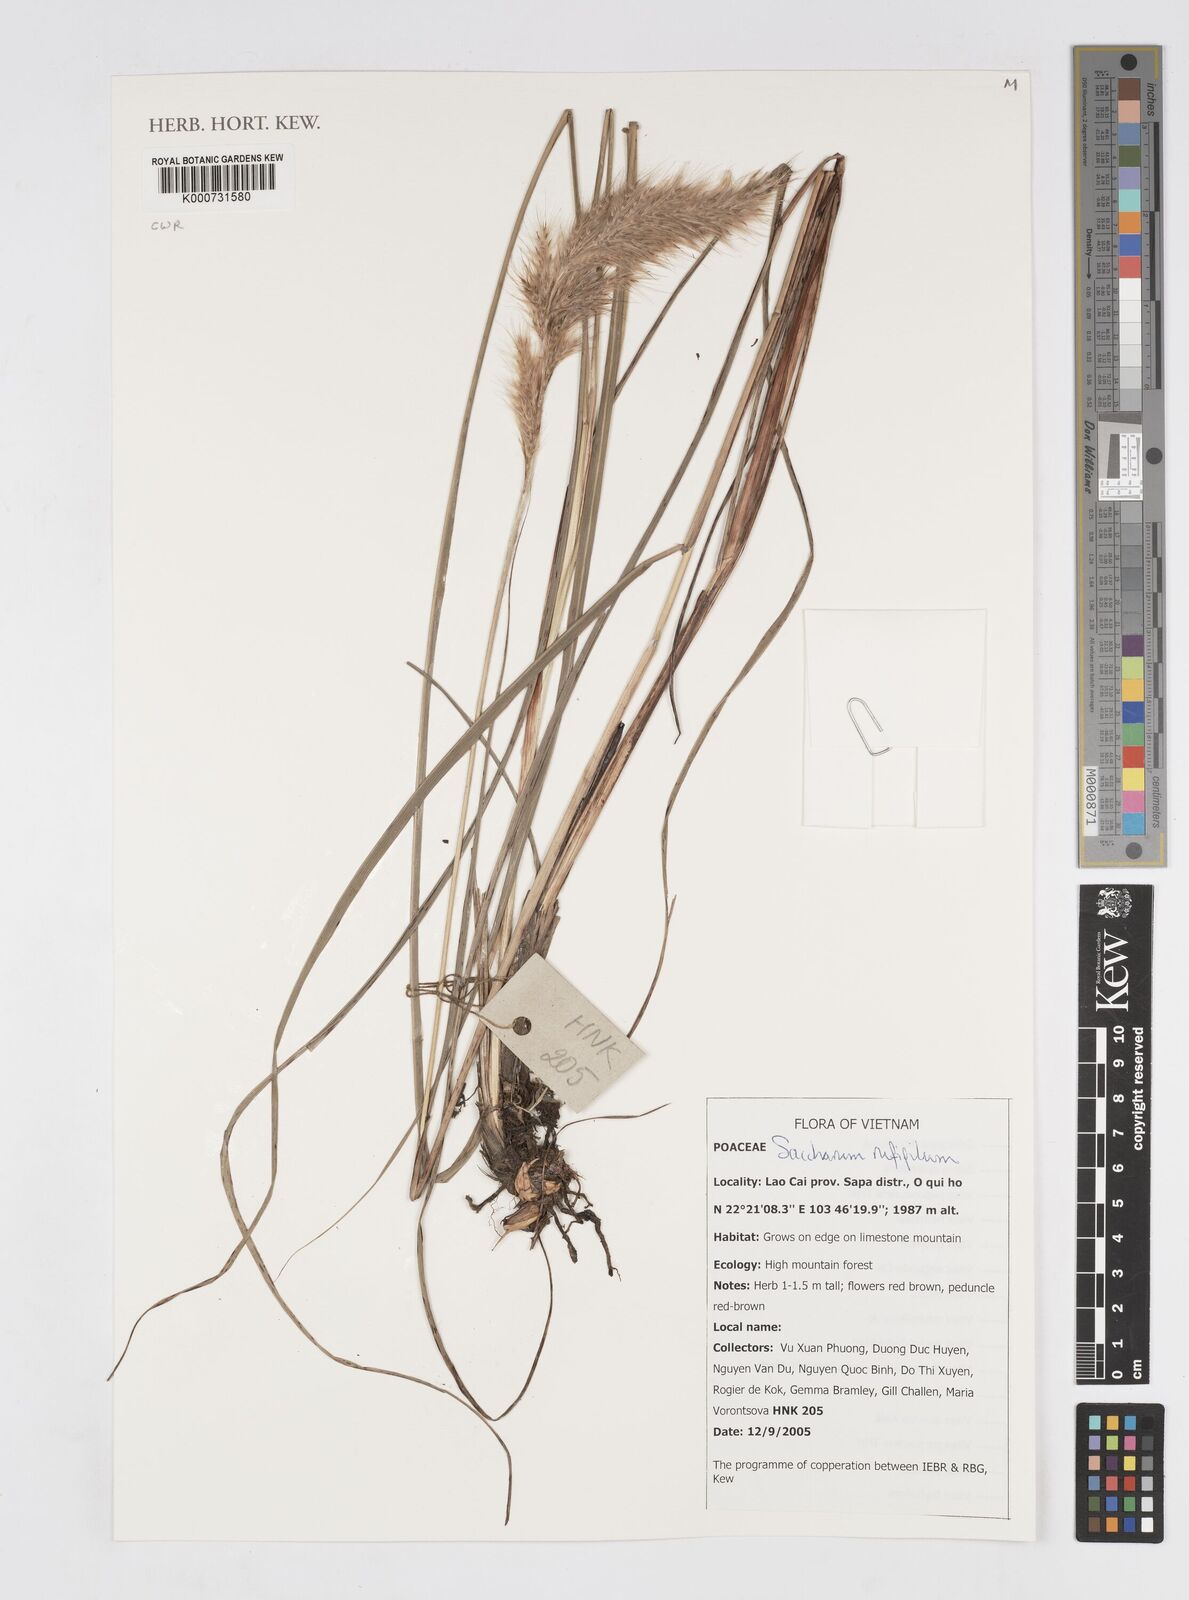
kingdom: Plantae
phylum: Tracheophyta
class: Liliopsida
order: Poales
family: Poaceae
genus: Saccharum
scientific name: Saccharum
